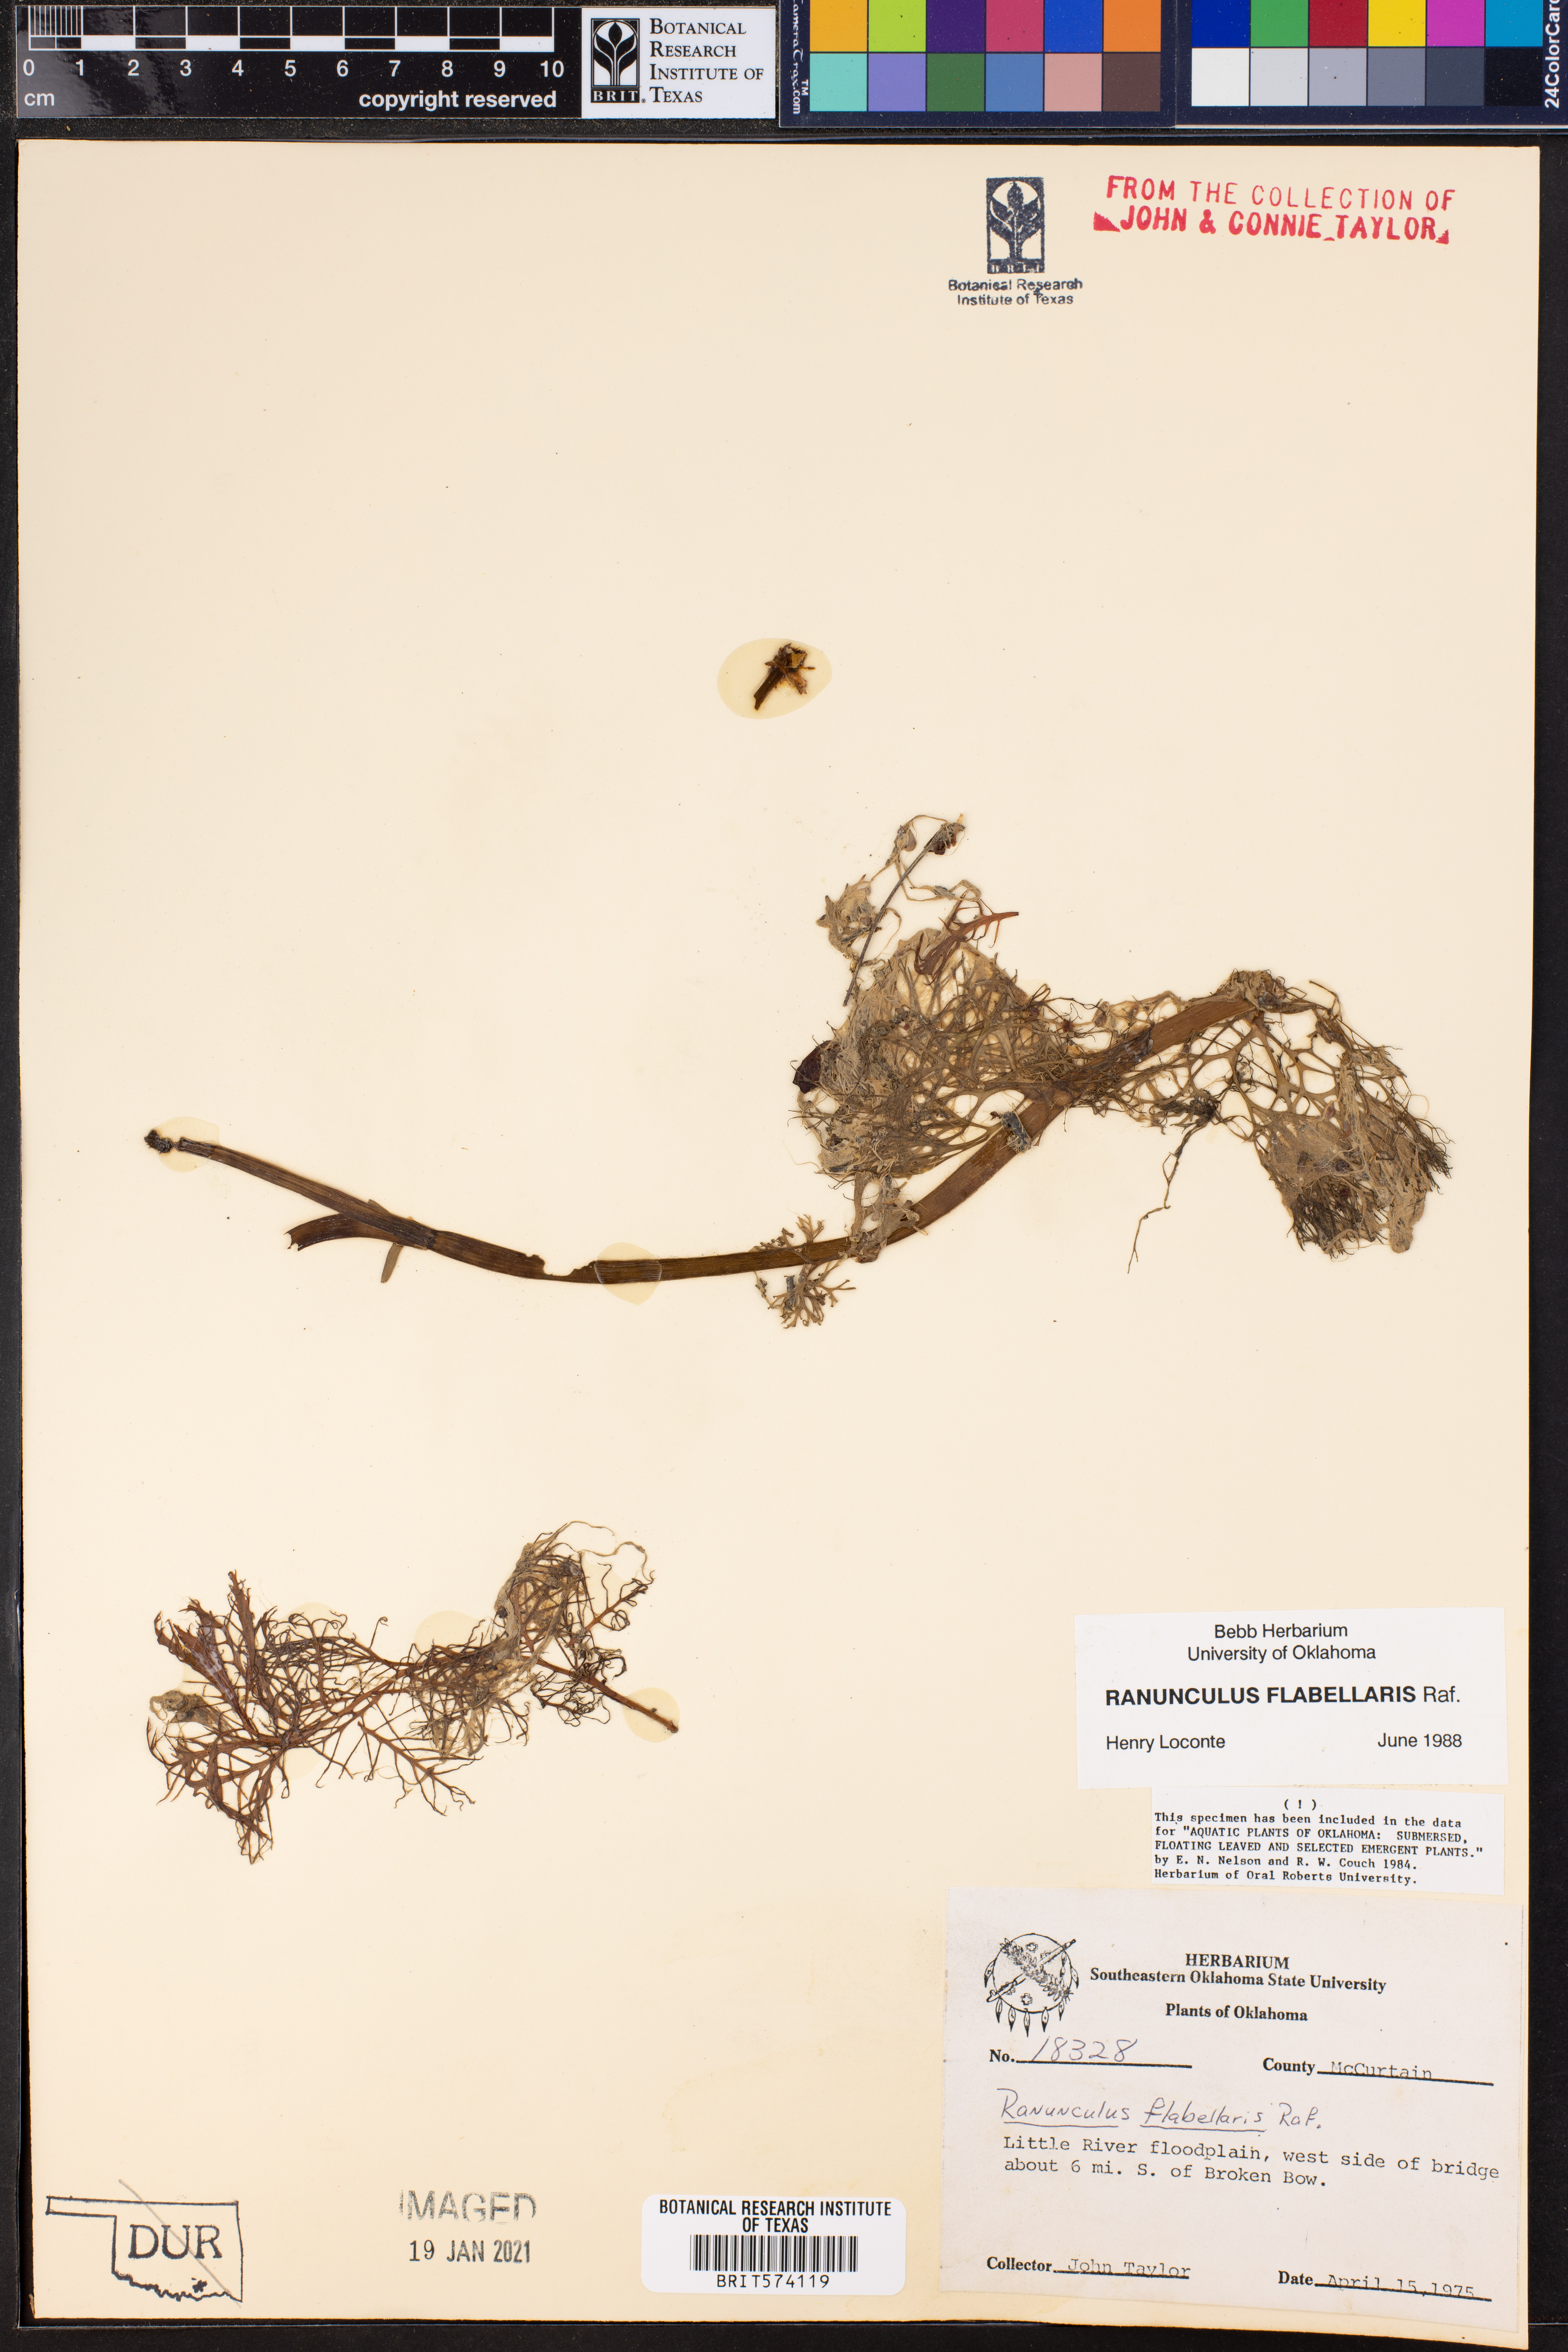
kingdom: Plantae
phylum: Tracheophyta
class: Magnoliopsida
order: Ranunculales
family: Ranunculaceae
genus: Ranunculus
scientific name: Ranunculus flabellaris
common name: Yellow water-crowfoot
